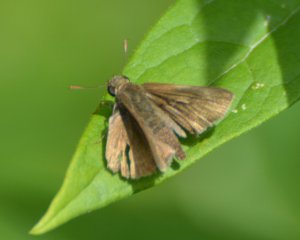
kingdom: Animalia
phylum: Arthropoda
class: Insecta
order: Lepidoptera
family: Hesperiidae
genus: Euphyes
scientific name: Euphyes vestris
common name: Dun Skipper
